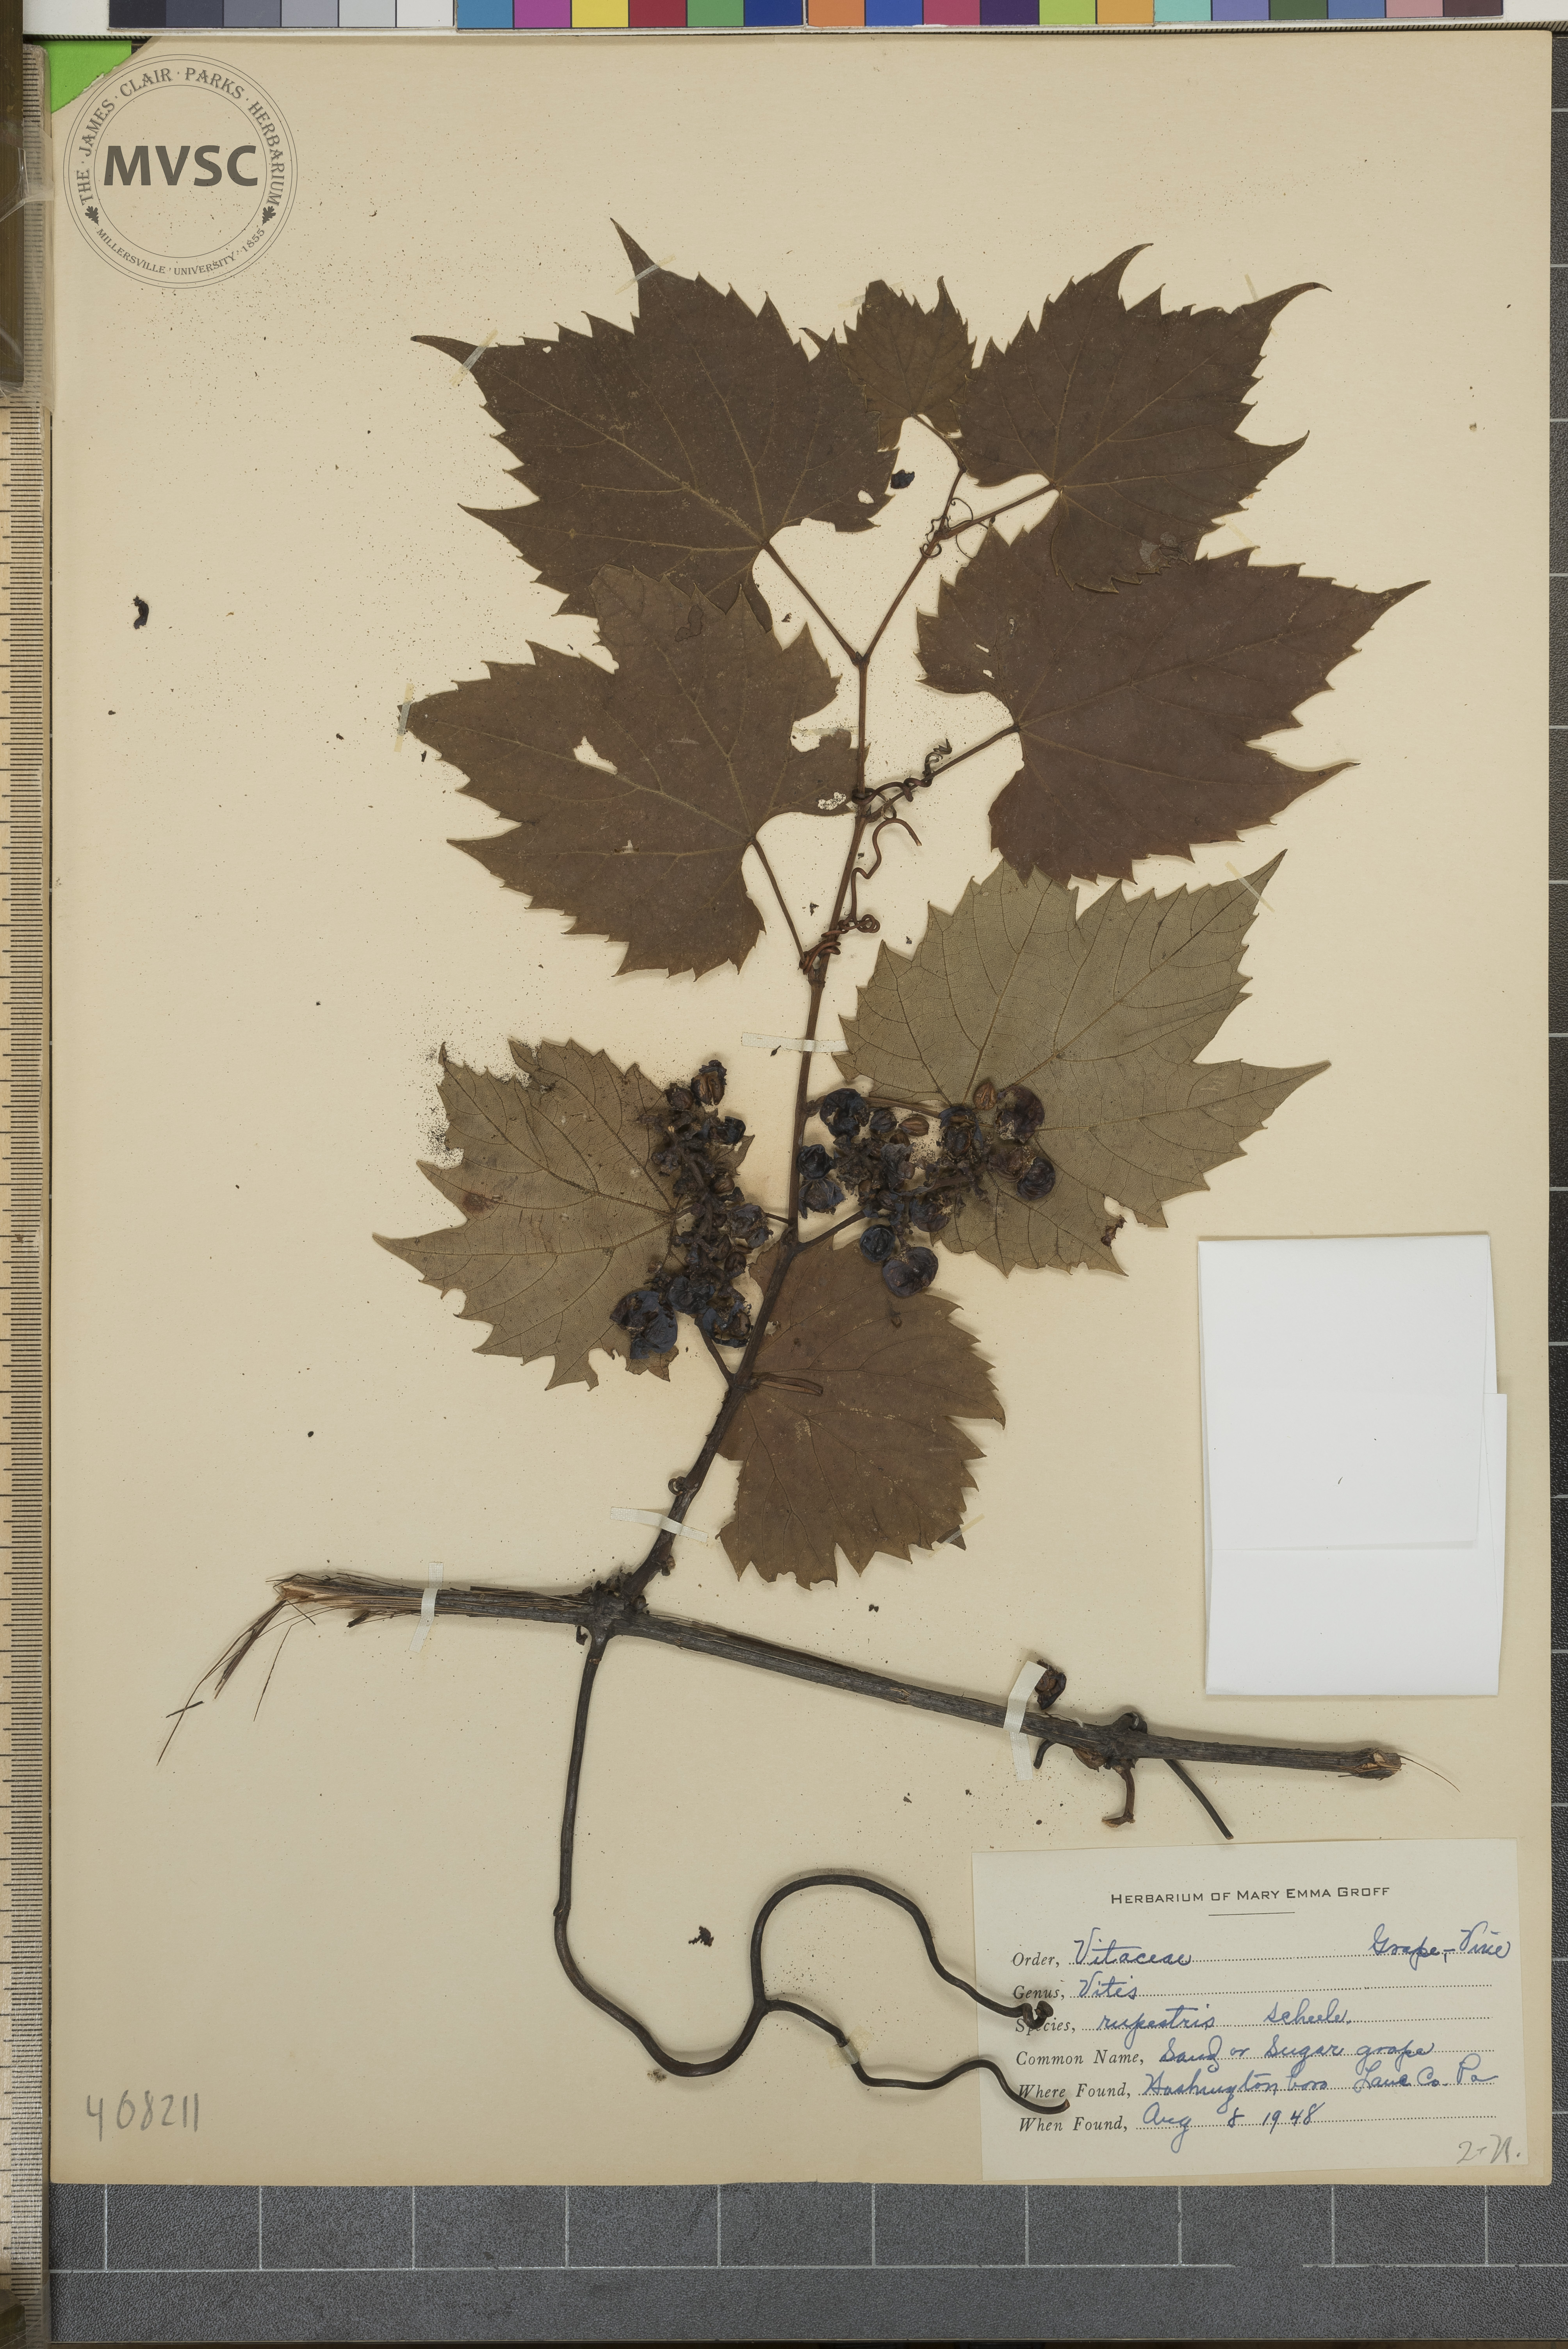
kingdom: Plantae
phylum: Tracheophyta
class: Magnoliopsida
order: Vitales
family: Vitaceae
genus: Vitis
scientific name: Vitis riparia
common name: Frost grape
